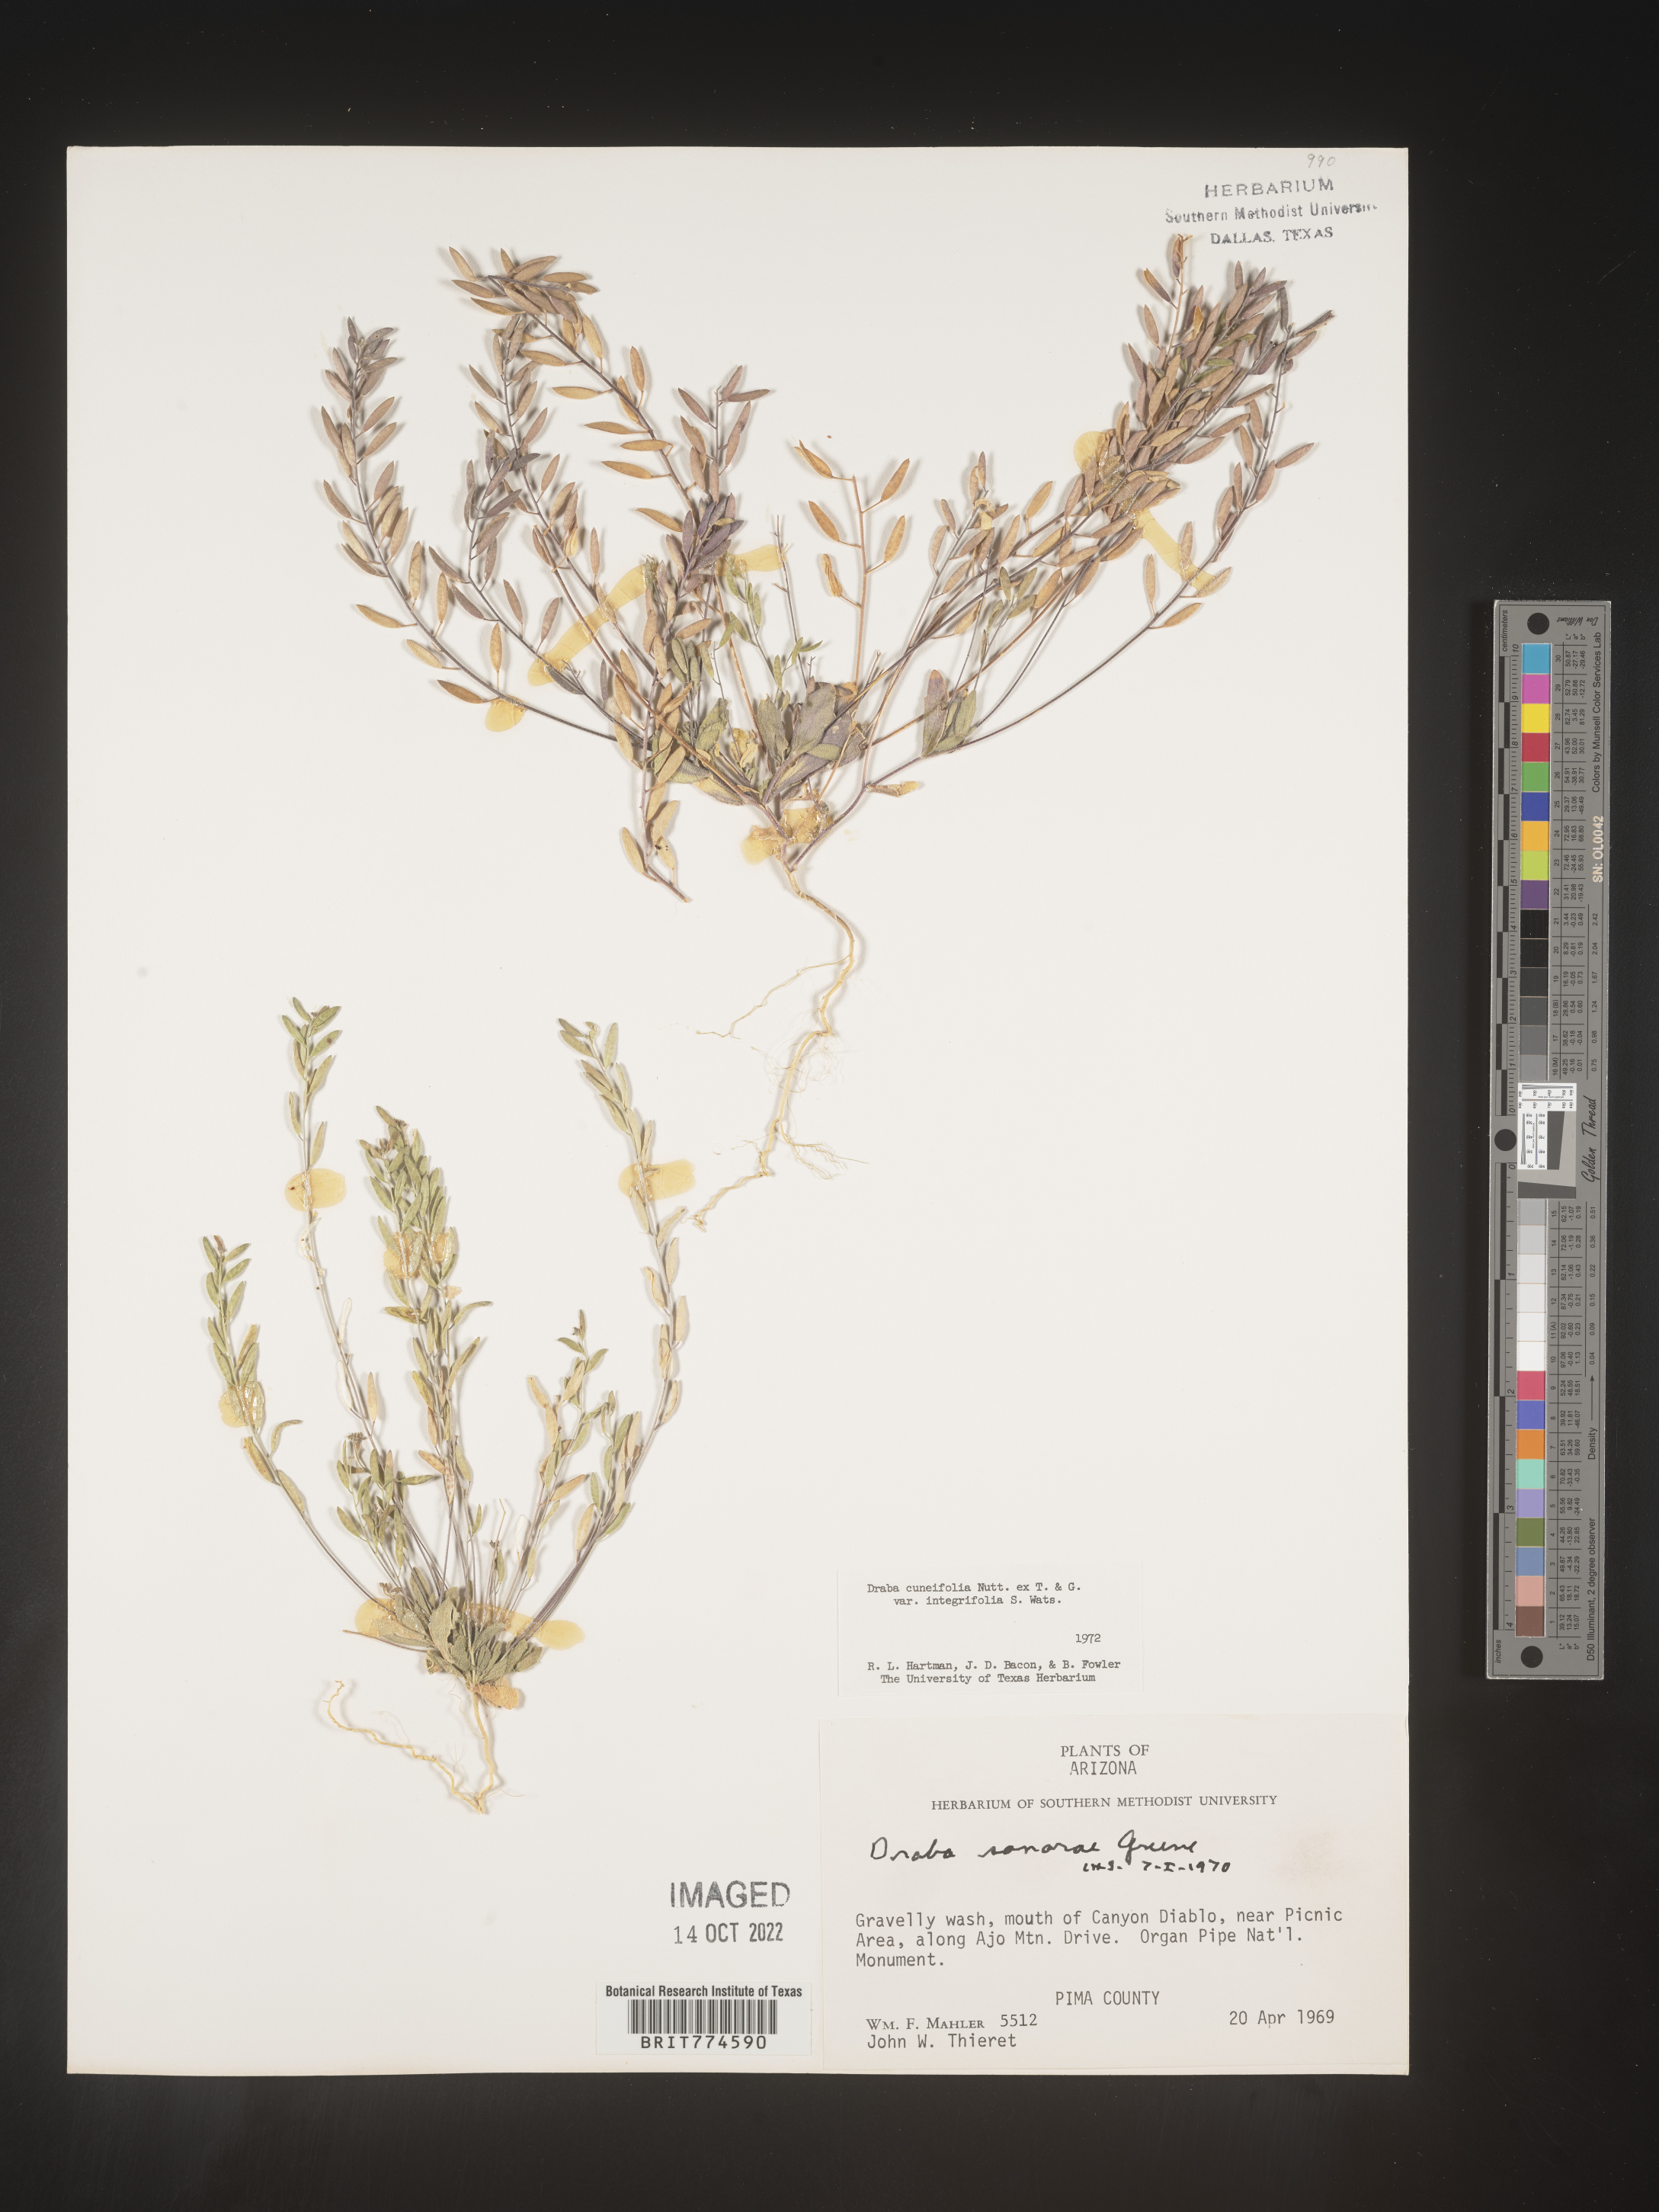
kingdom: Plantae
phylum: Tracheophyta
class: Magnoliopsida
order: Brassicales
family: Brassicaceae
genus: Tomostima
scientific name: Tomostima cuneifolia
